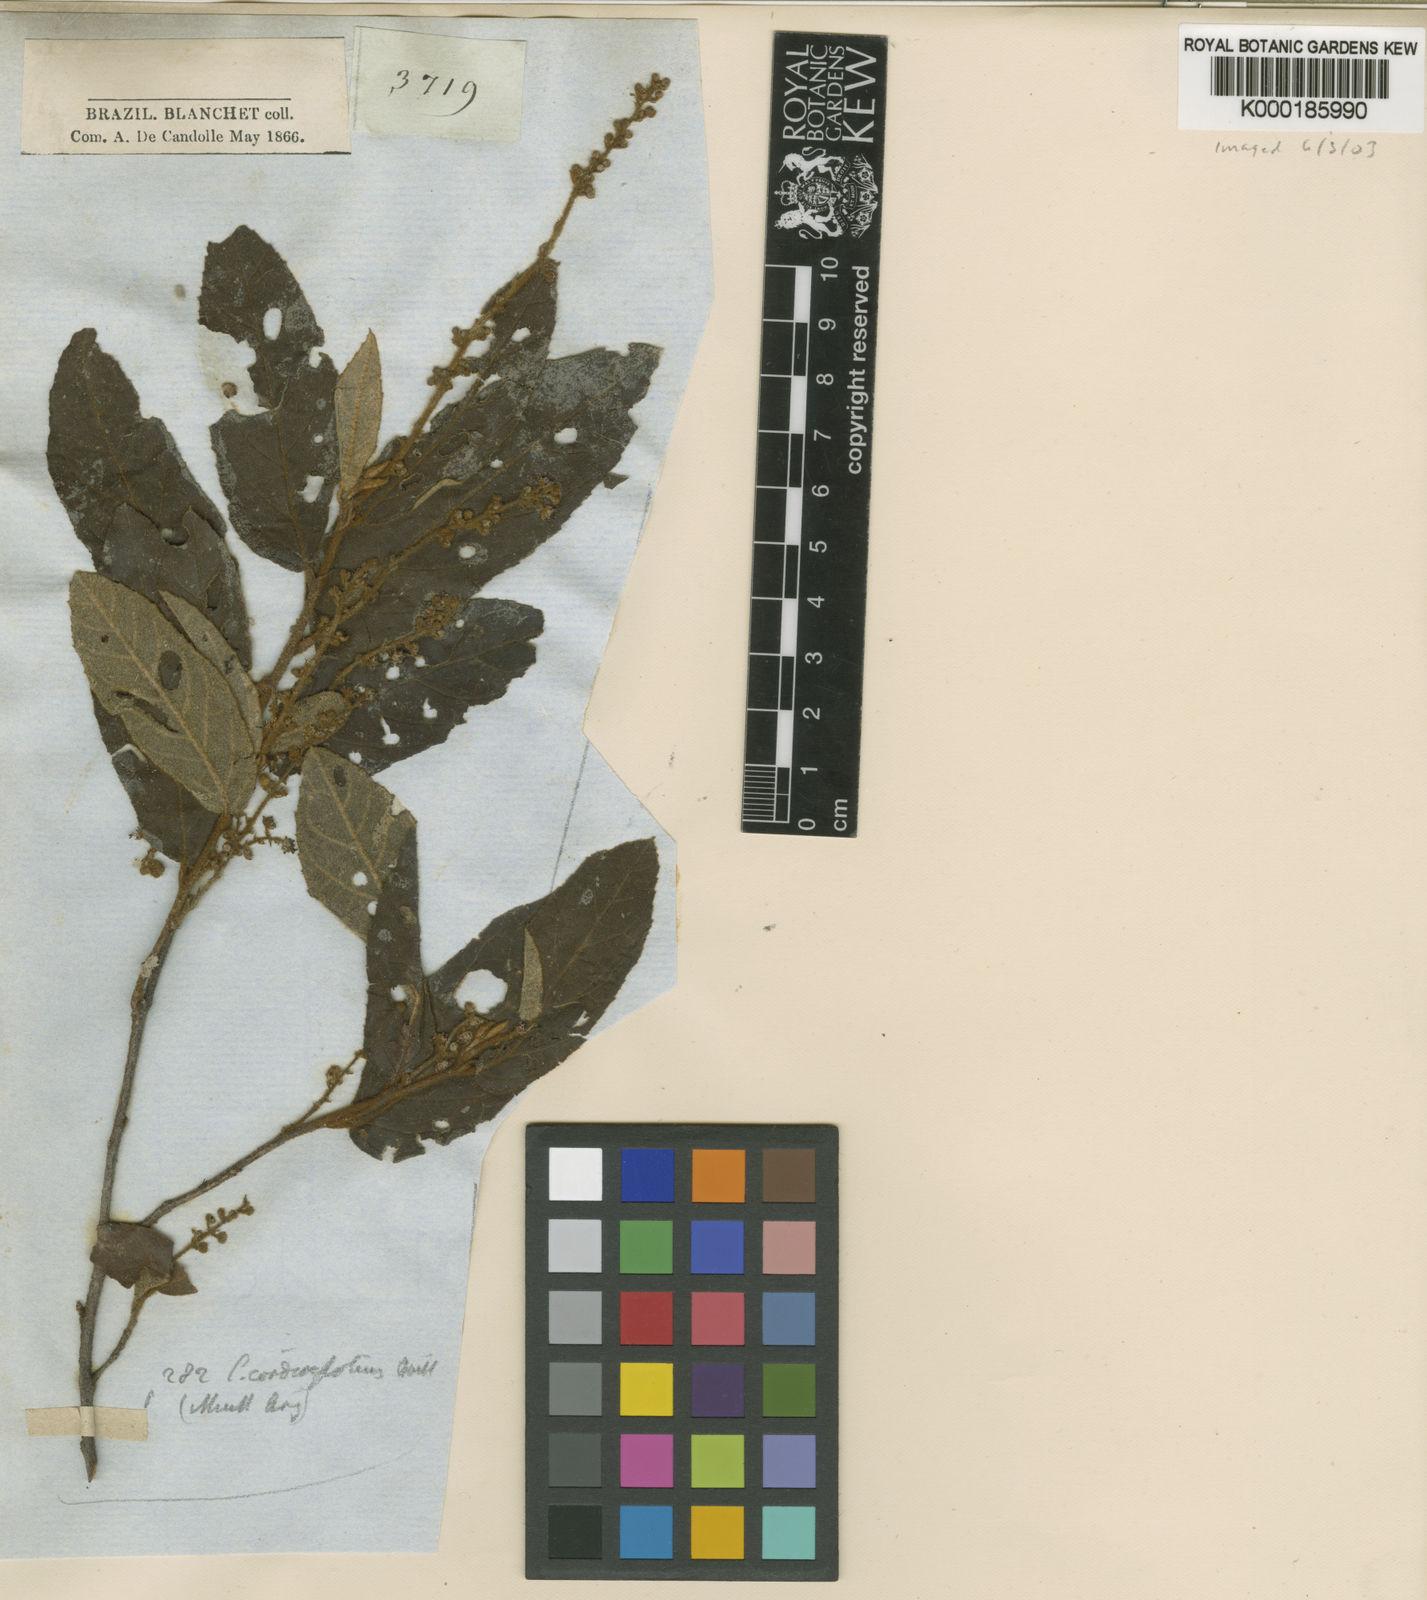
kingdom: Plantae
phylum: Tracheophyta
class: Magnoliopsida
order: Malpighiales
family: Euphorbiaceae
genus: Croton
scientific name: Croton cordiifolius
